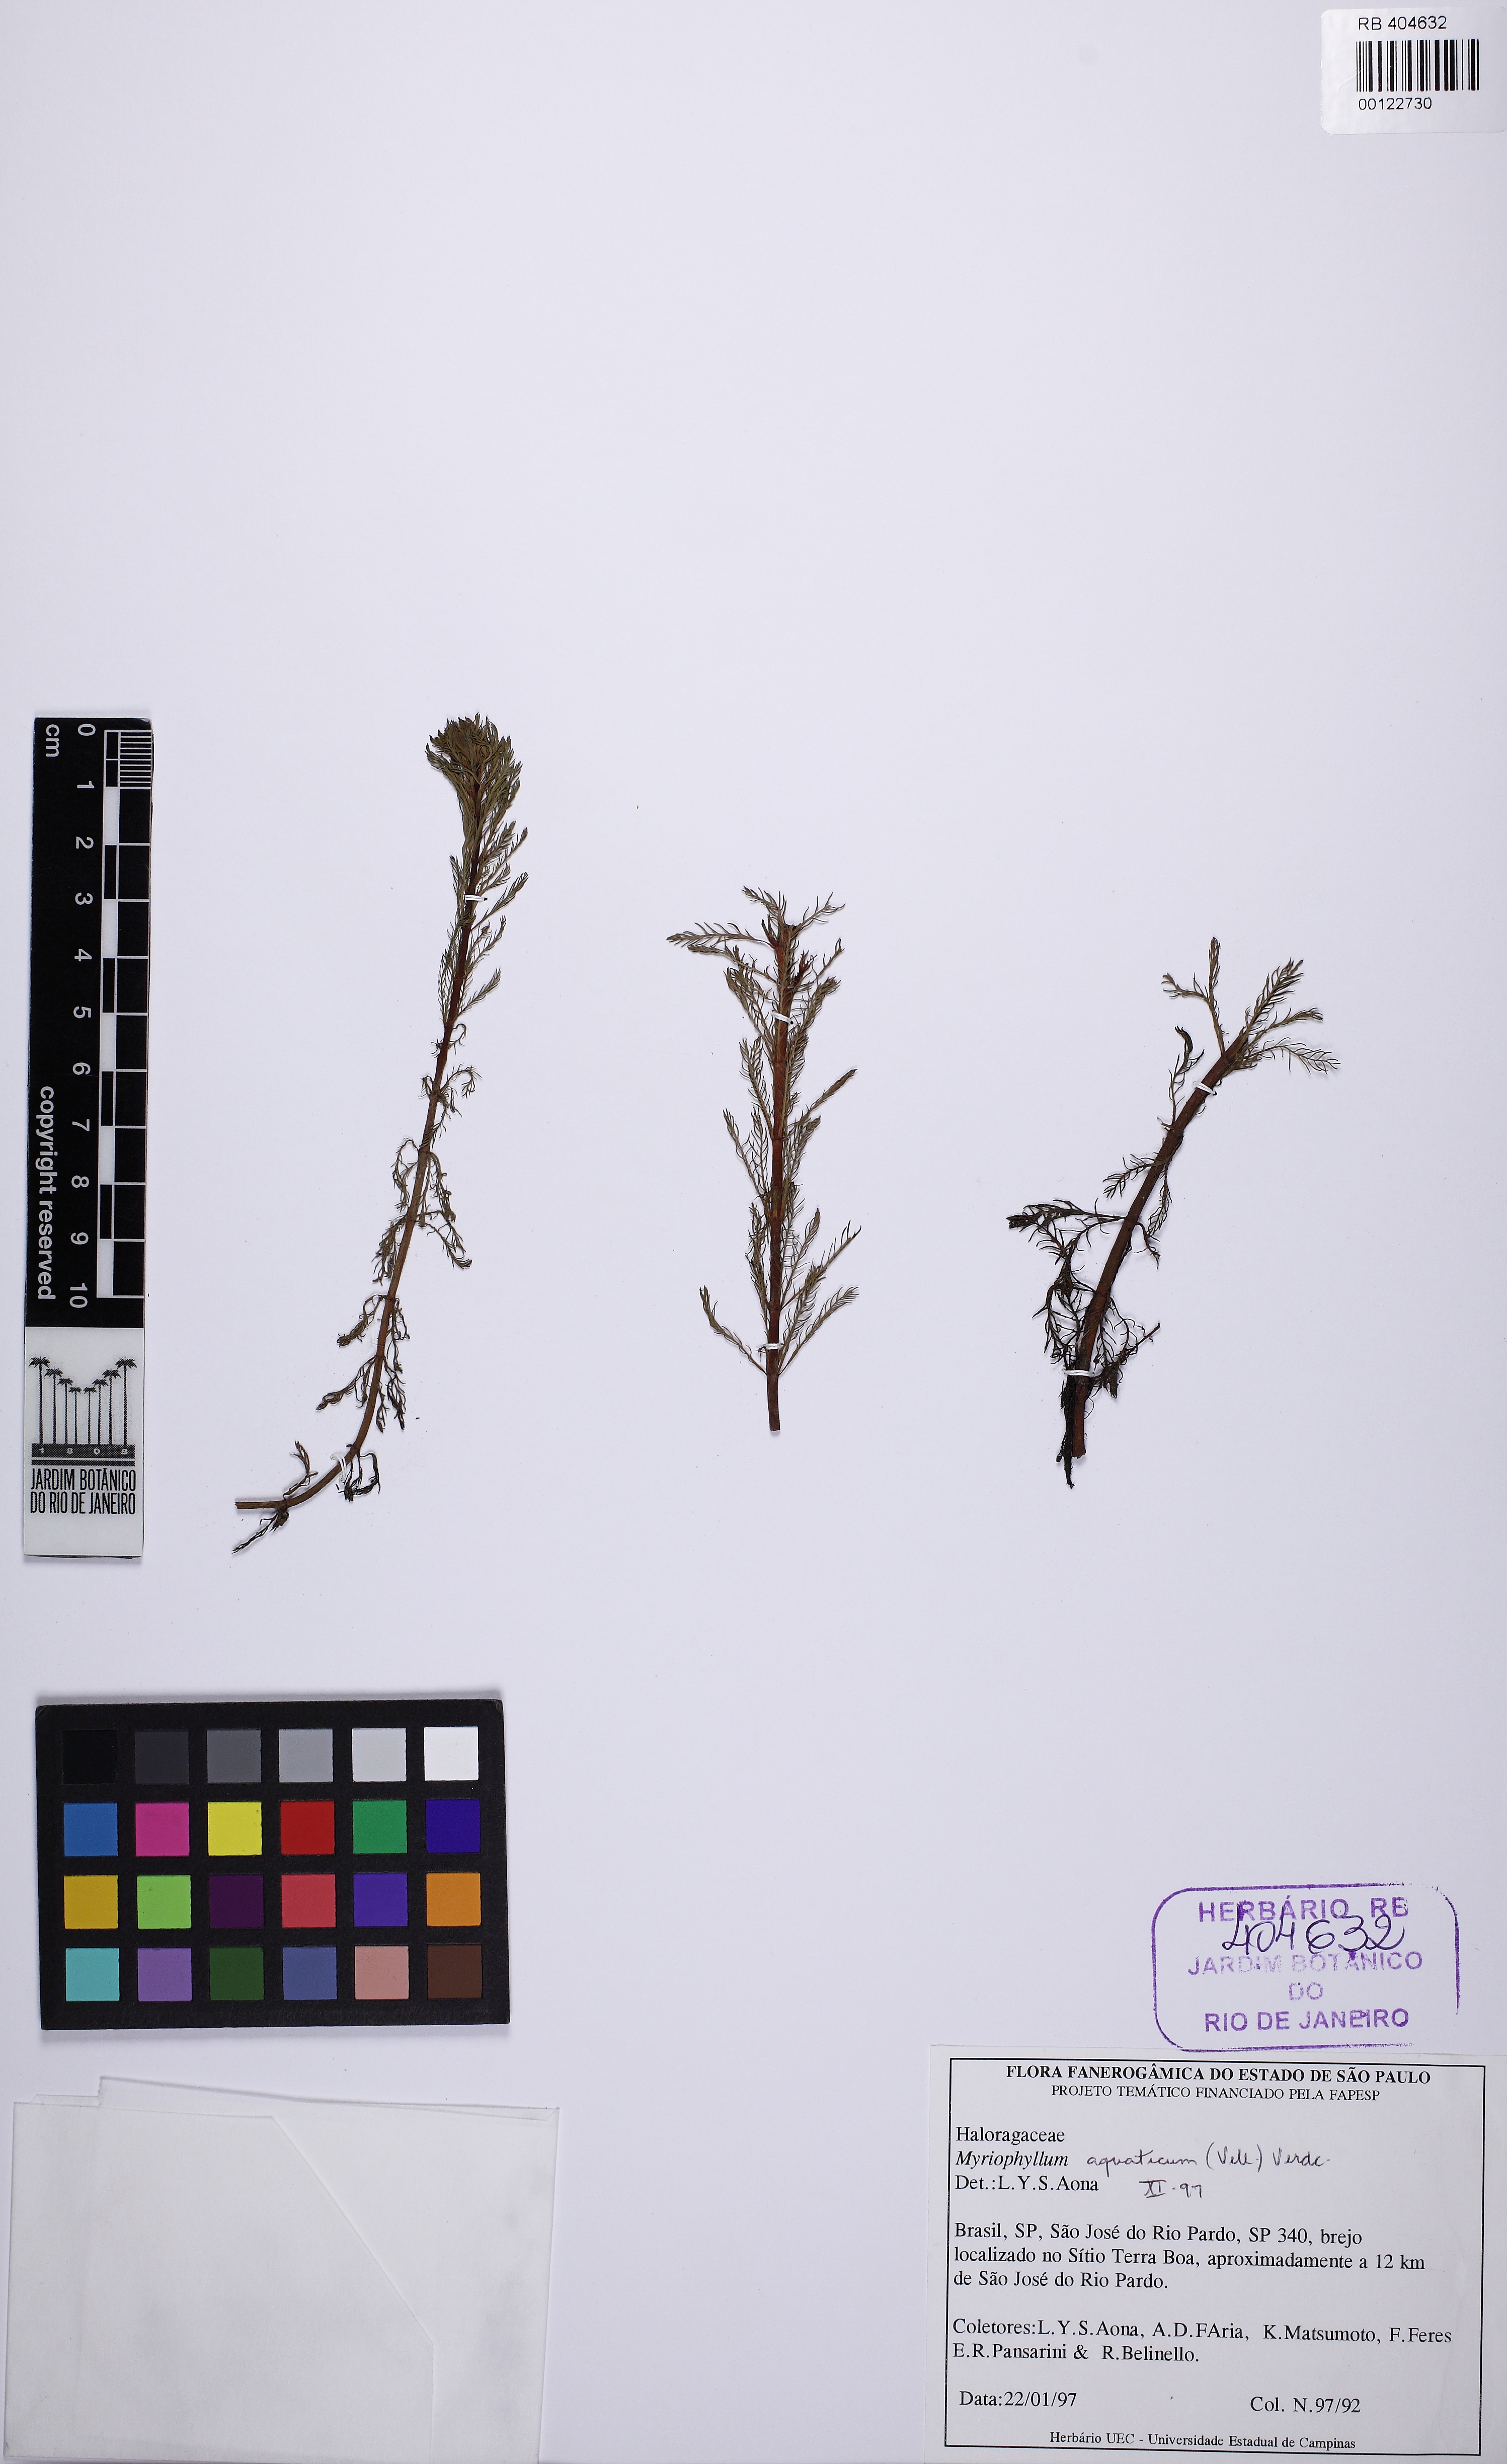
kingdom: Plantae
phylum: Tracheophyta
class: Magnoliopsida
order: Saxifragales
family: Haloragaceae
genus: Myriophyllum
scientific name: Myriophyllum aquaticum
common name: Parrot's feather
